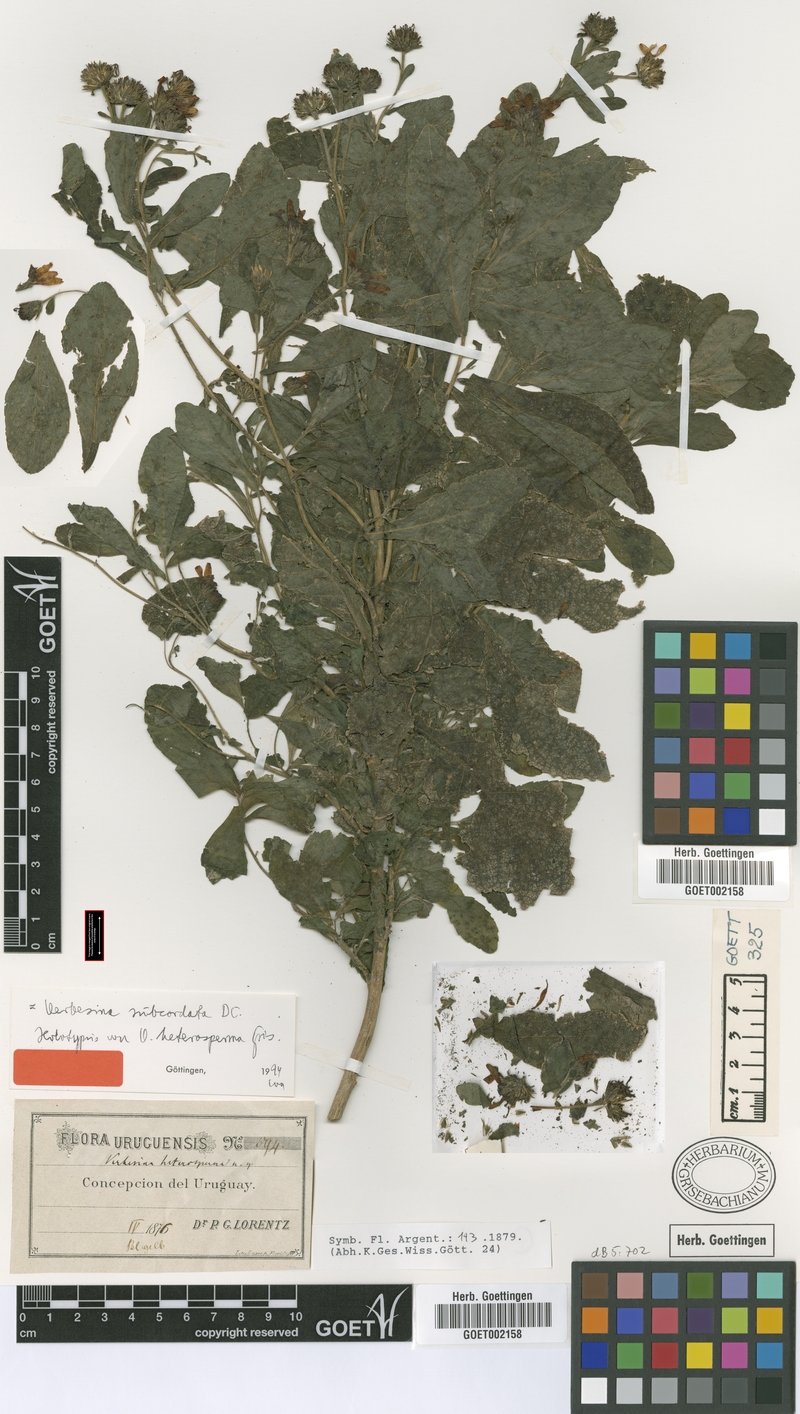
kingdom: Plantae
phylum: Tracheophyta
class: Magnoliopsida
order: Asterales
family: Asteraceae
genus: Verbesina
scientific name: Verbesina subcordata
